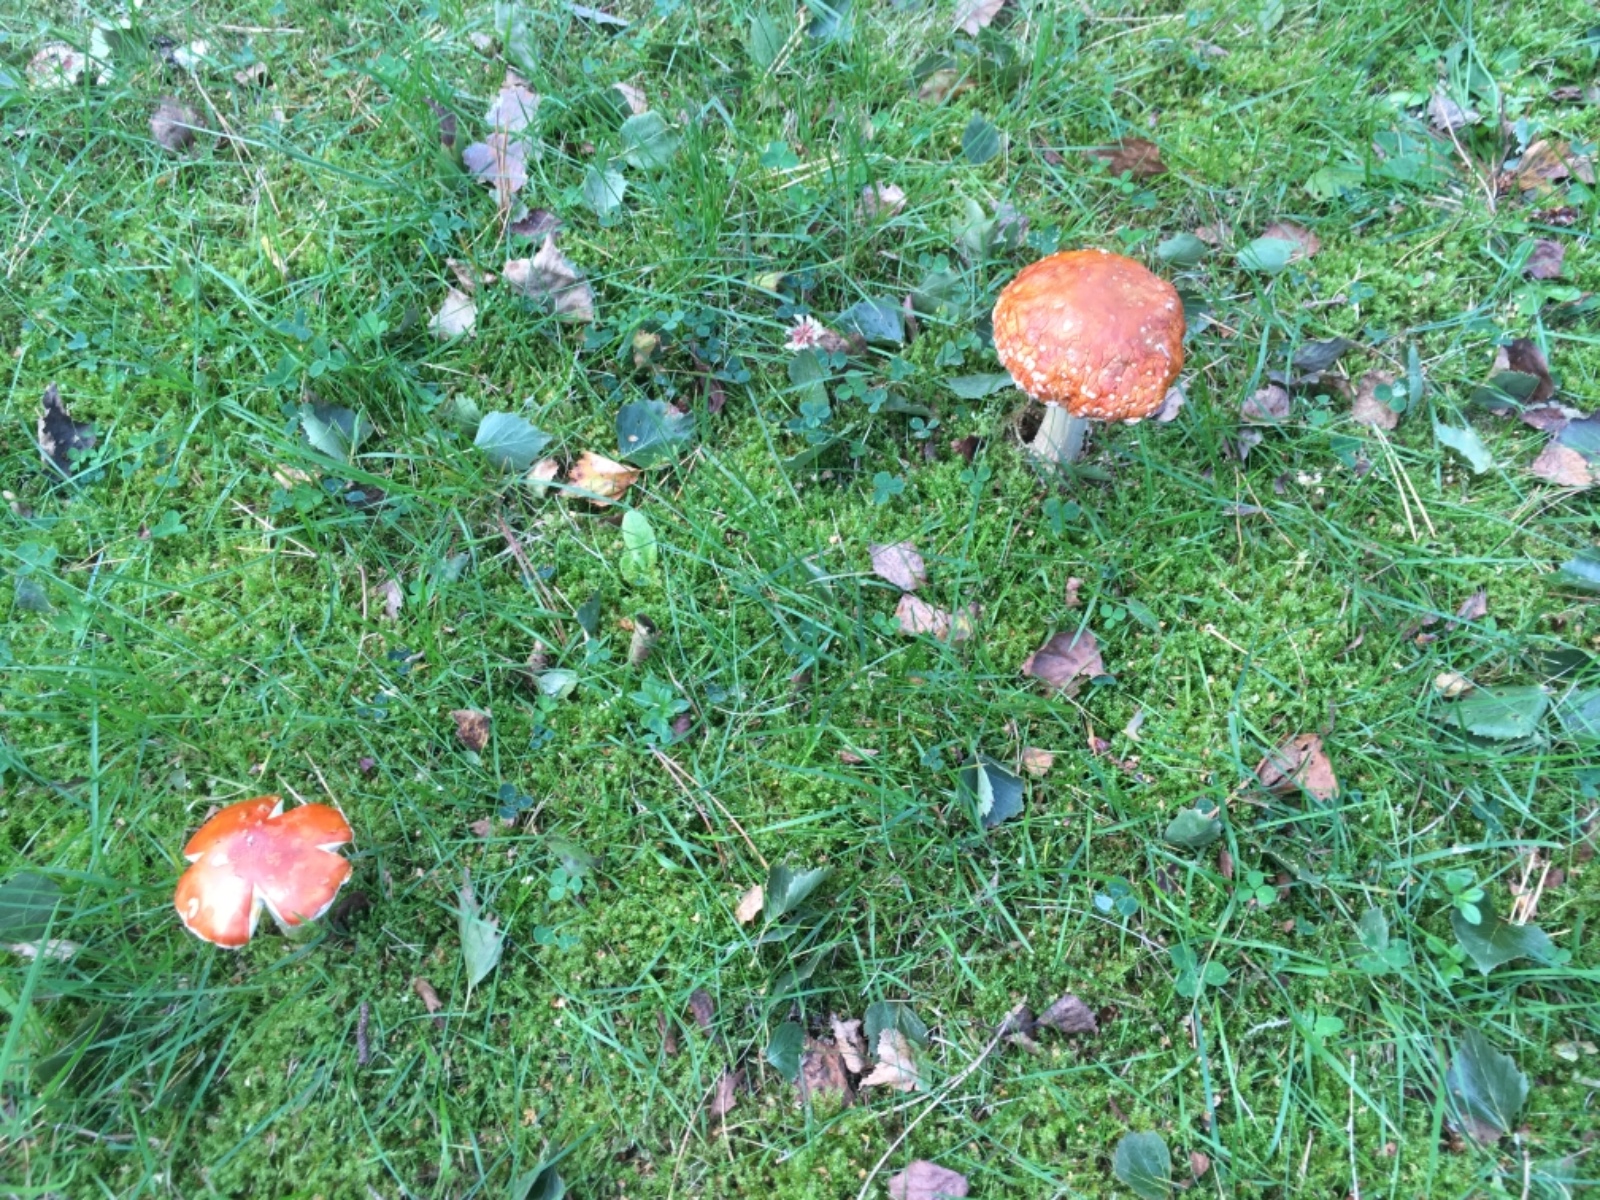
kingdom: Fungi
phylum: Basidiomycota
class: Agaricomycetes
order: Agaricales
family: Amanitaceae
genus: Amanita
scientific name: Amanita muscaria
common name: rød fluesvamp
